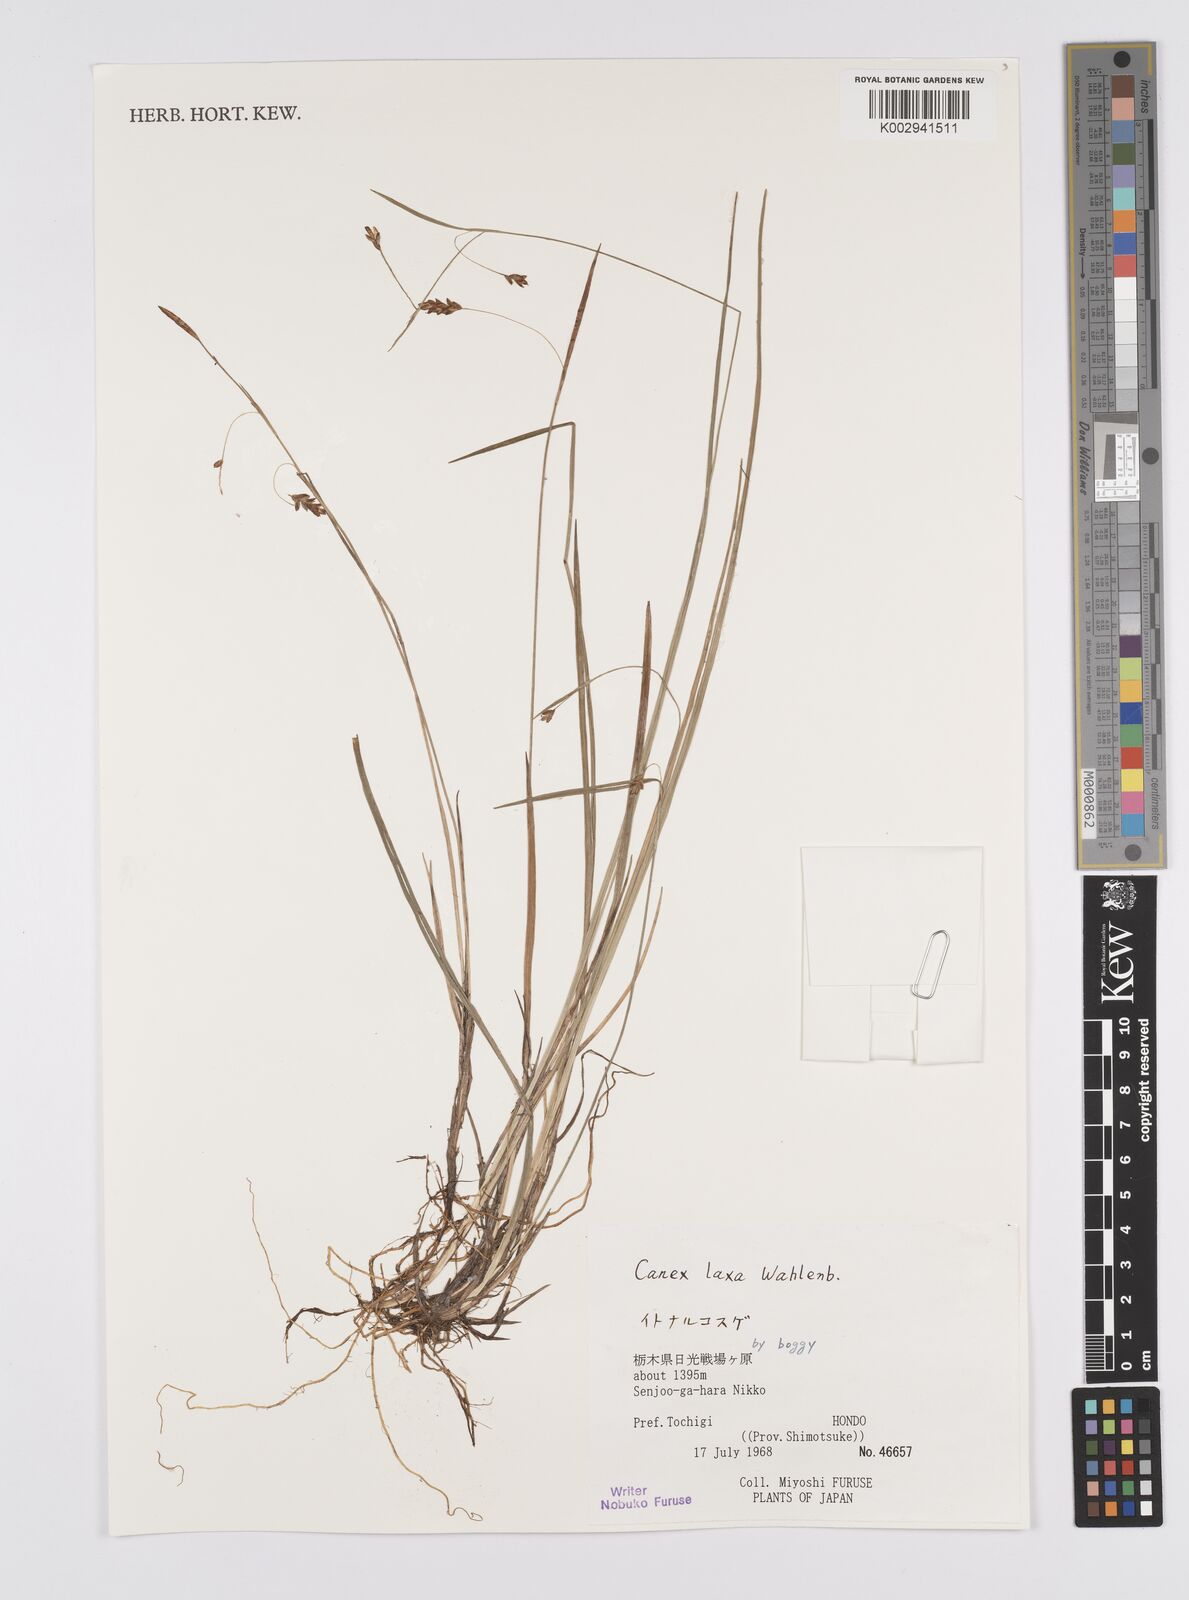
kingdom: Plantae
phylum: Tracheophyta
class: Liliopsida
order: Poales
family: Cyperaceae
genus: Carex
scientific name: Carex laxa
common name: Weak sedge
